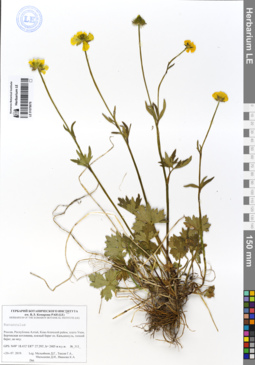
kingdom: Plantae
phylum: Tracheophyta
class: Magnoliopsida
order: Ranunculales
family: Ranunculaceae
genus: Ranunculus
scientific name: Ranunculus schischkinii
